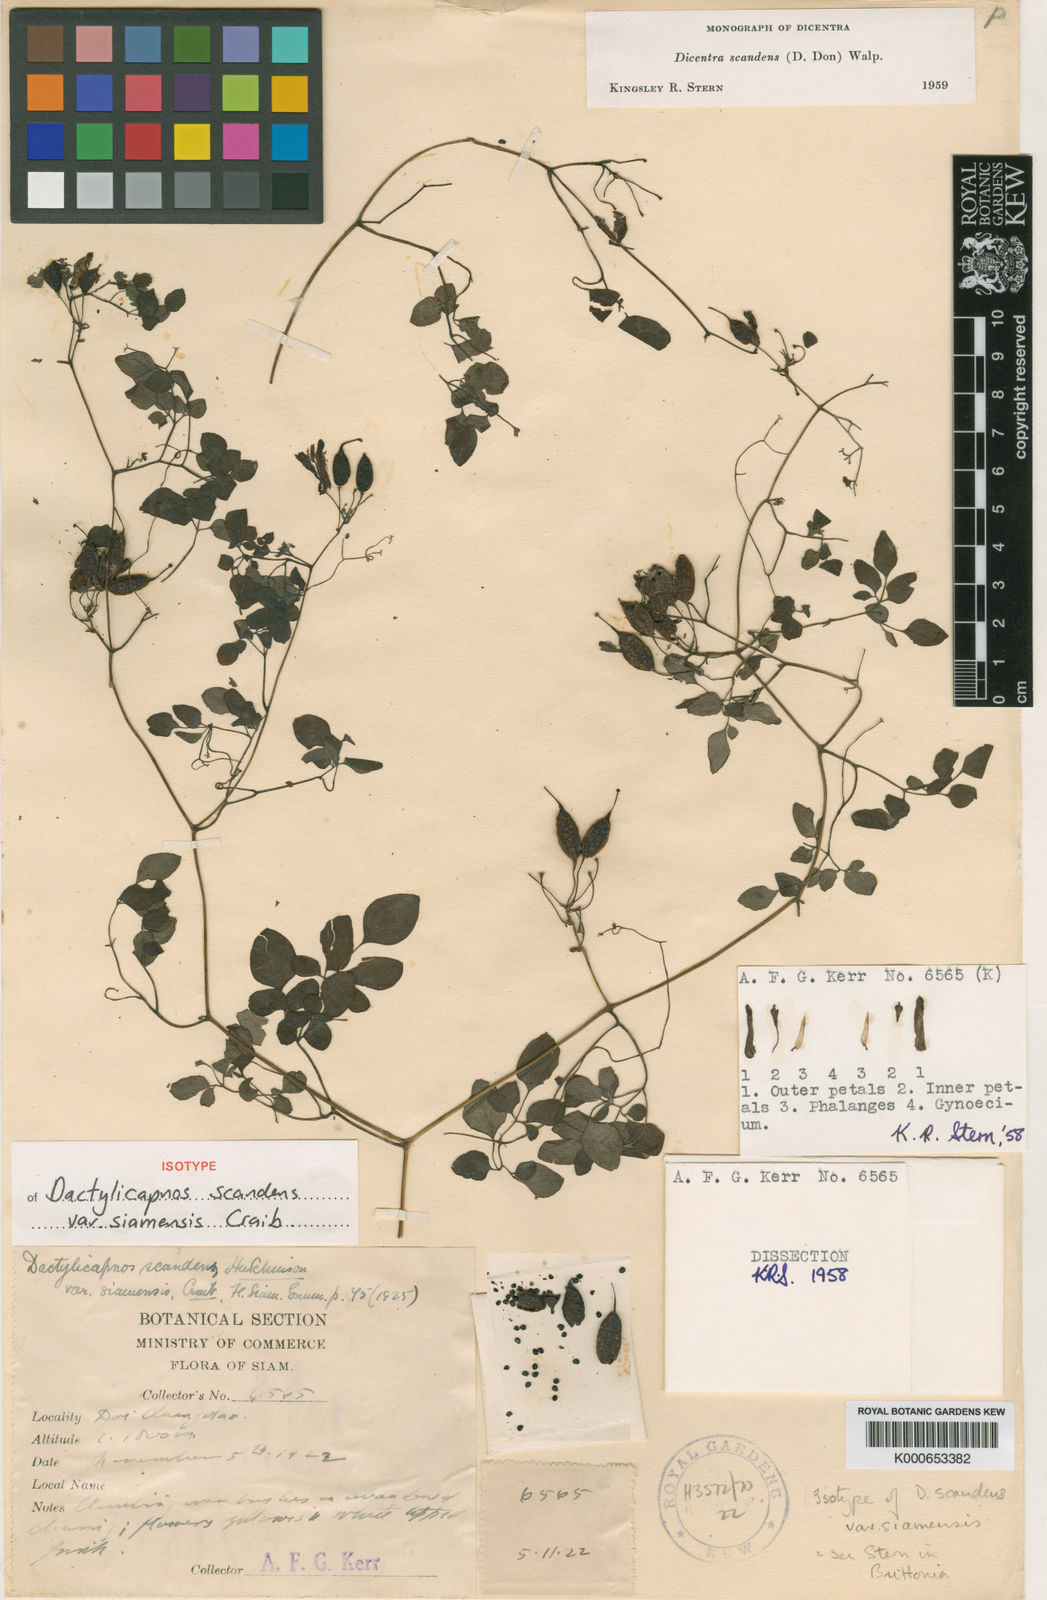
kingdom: Plantae
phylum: Tracheophyta
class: Magnoliopsida
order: Ranunculales
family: Papaveraceae
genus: Dactylicapnos
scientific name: Dactylicapnos scandens
